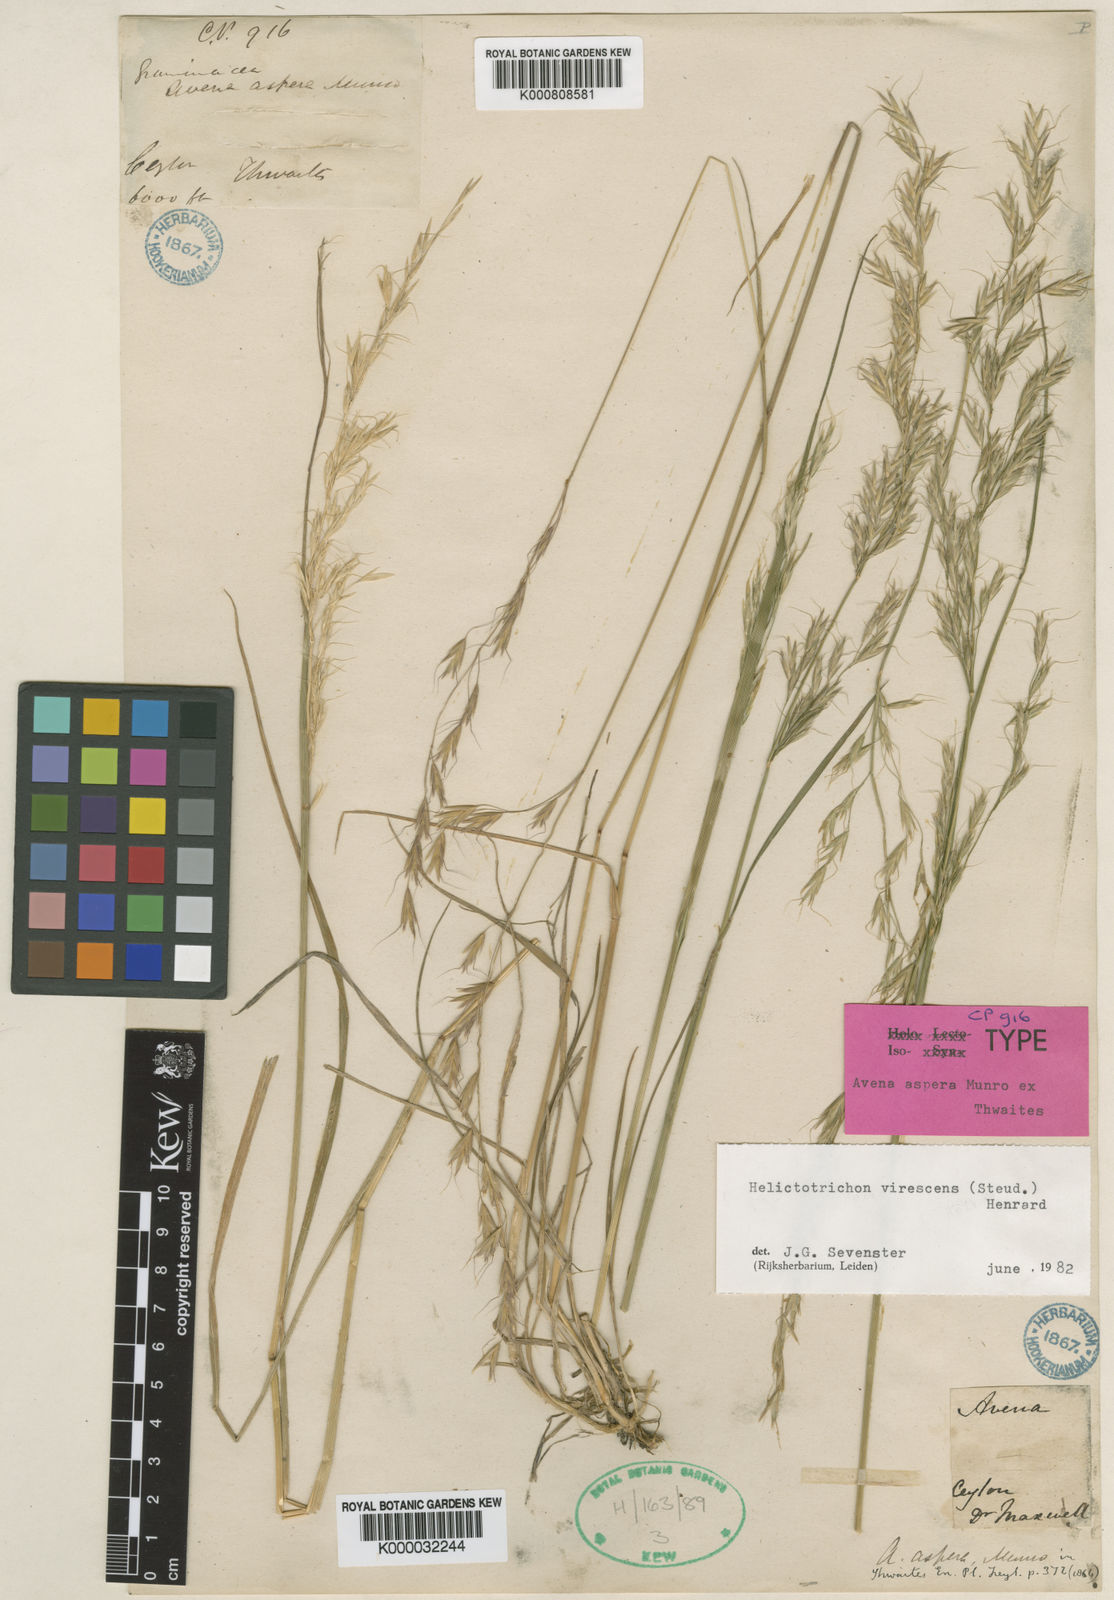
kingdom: Plantae
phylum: Tracheophyta
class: Liliopsida
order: Poales
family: Poaceae
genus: Trisetopsis
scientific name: Trisetopsis virescens
